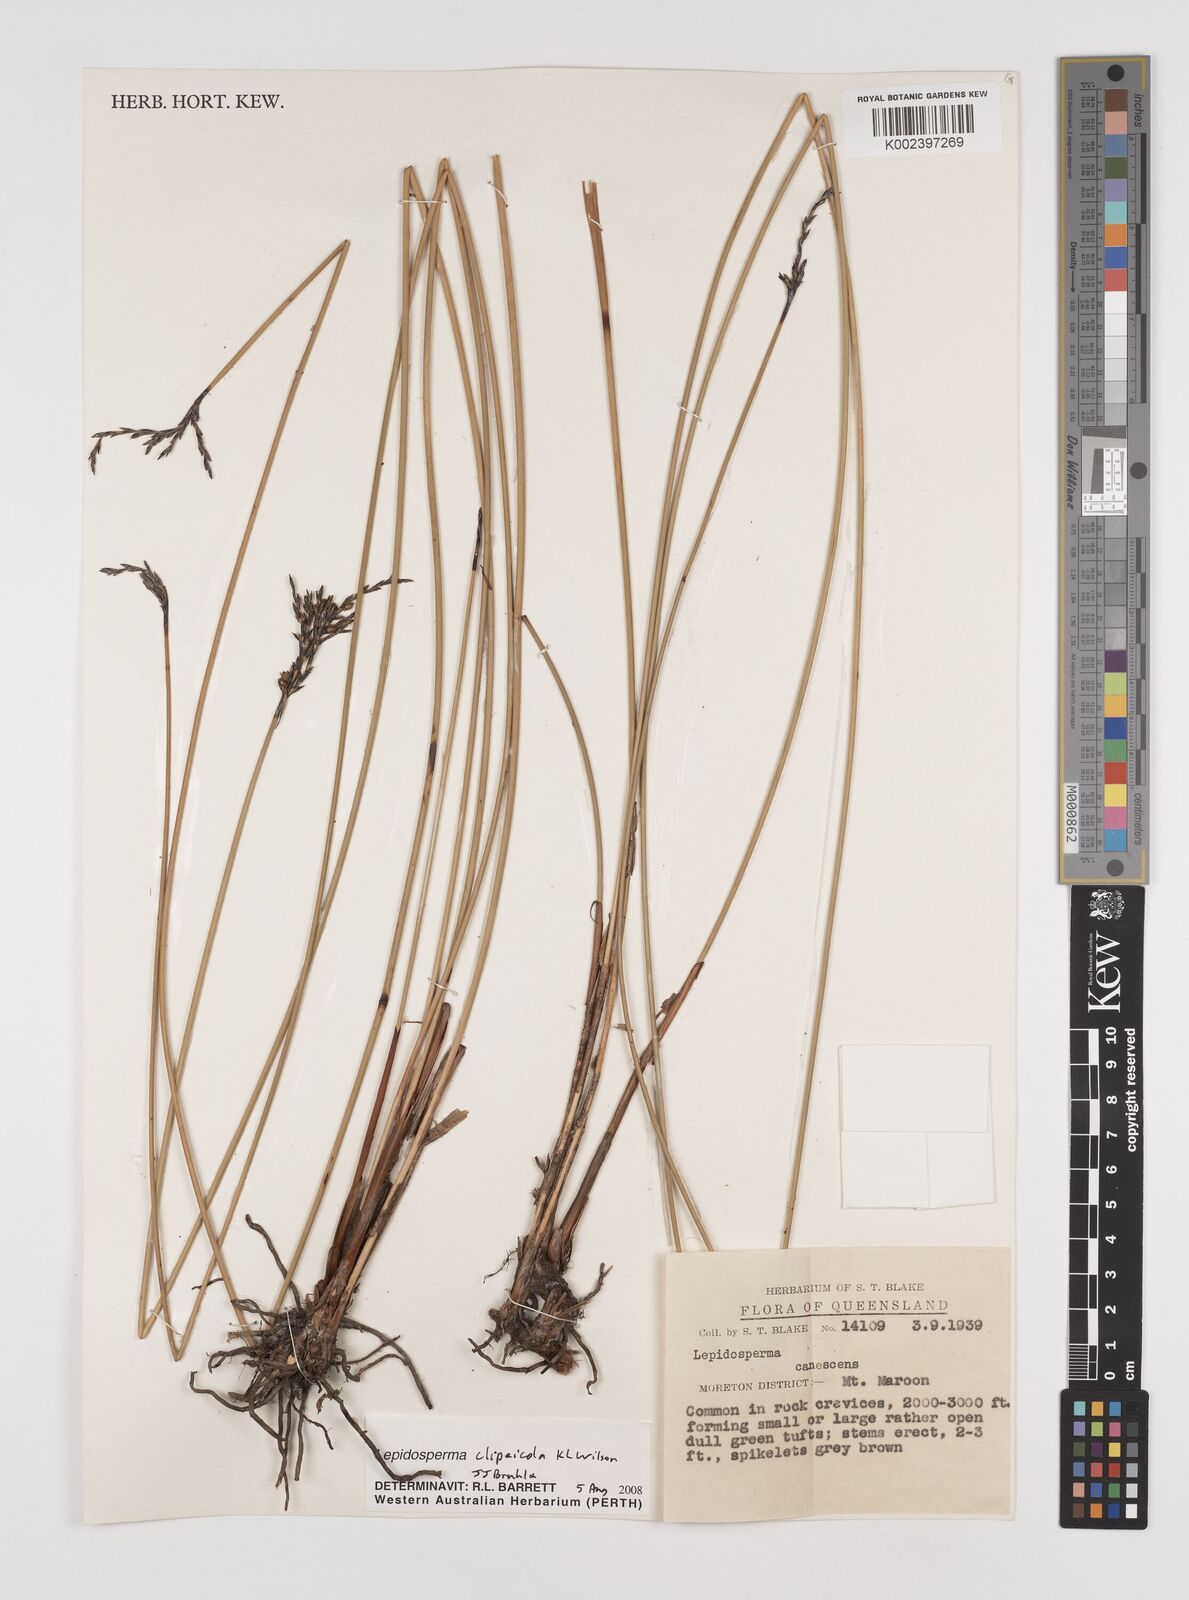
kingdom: Plantae
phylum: Tracheophyta
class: Liliopsida
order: Poales
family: Cyperaceae
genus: Lepidosperma
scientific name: Lepidosperma clipeicola
